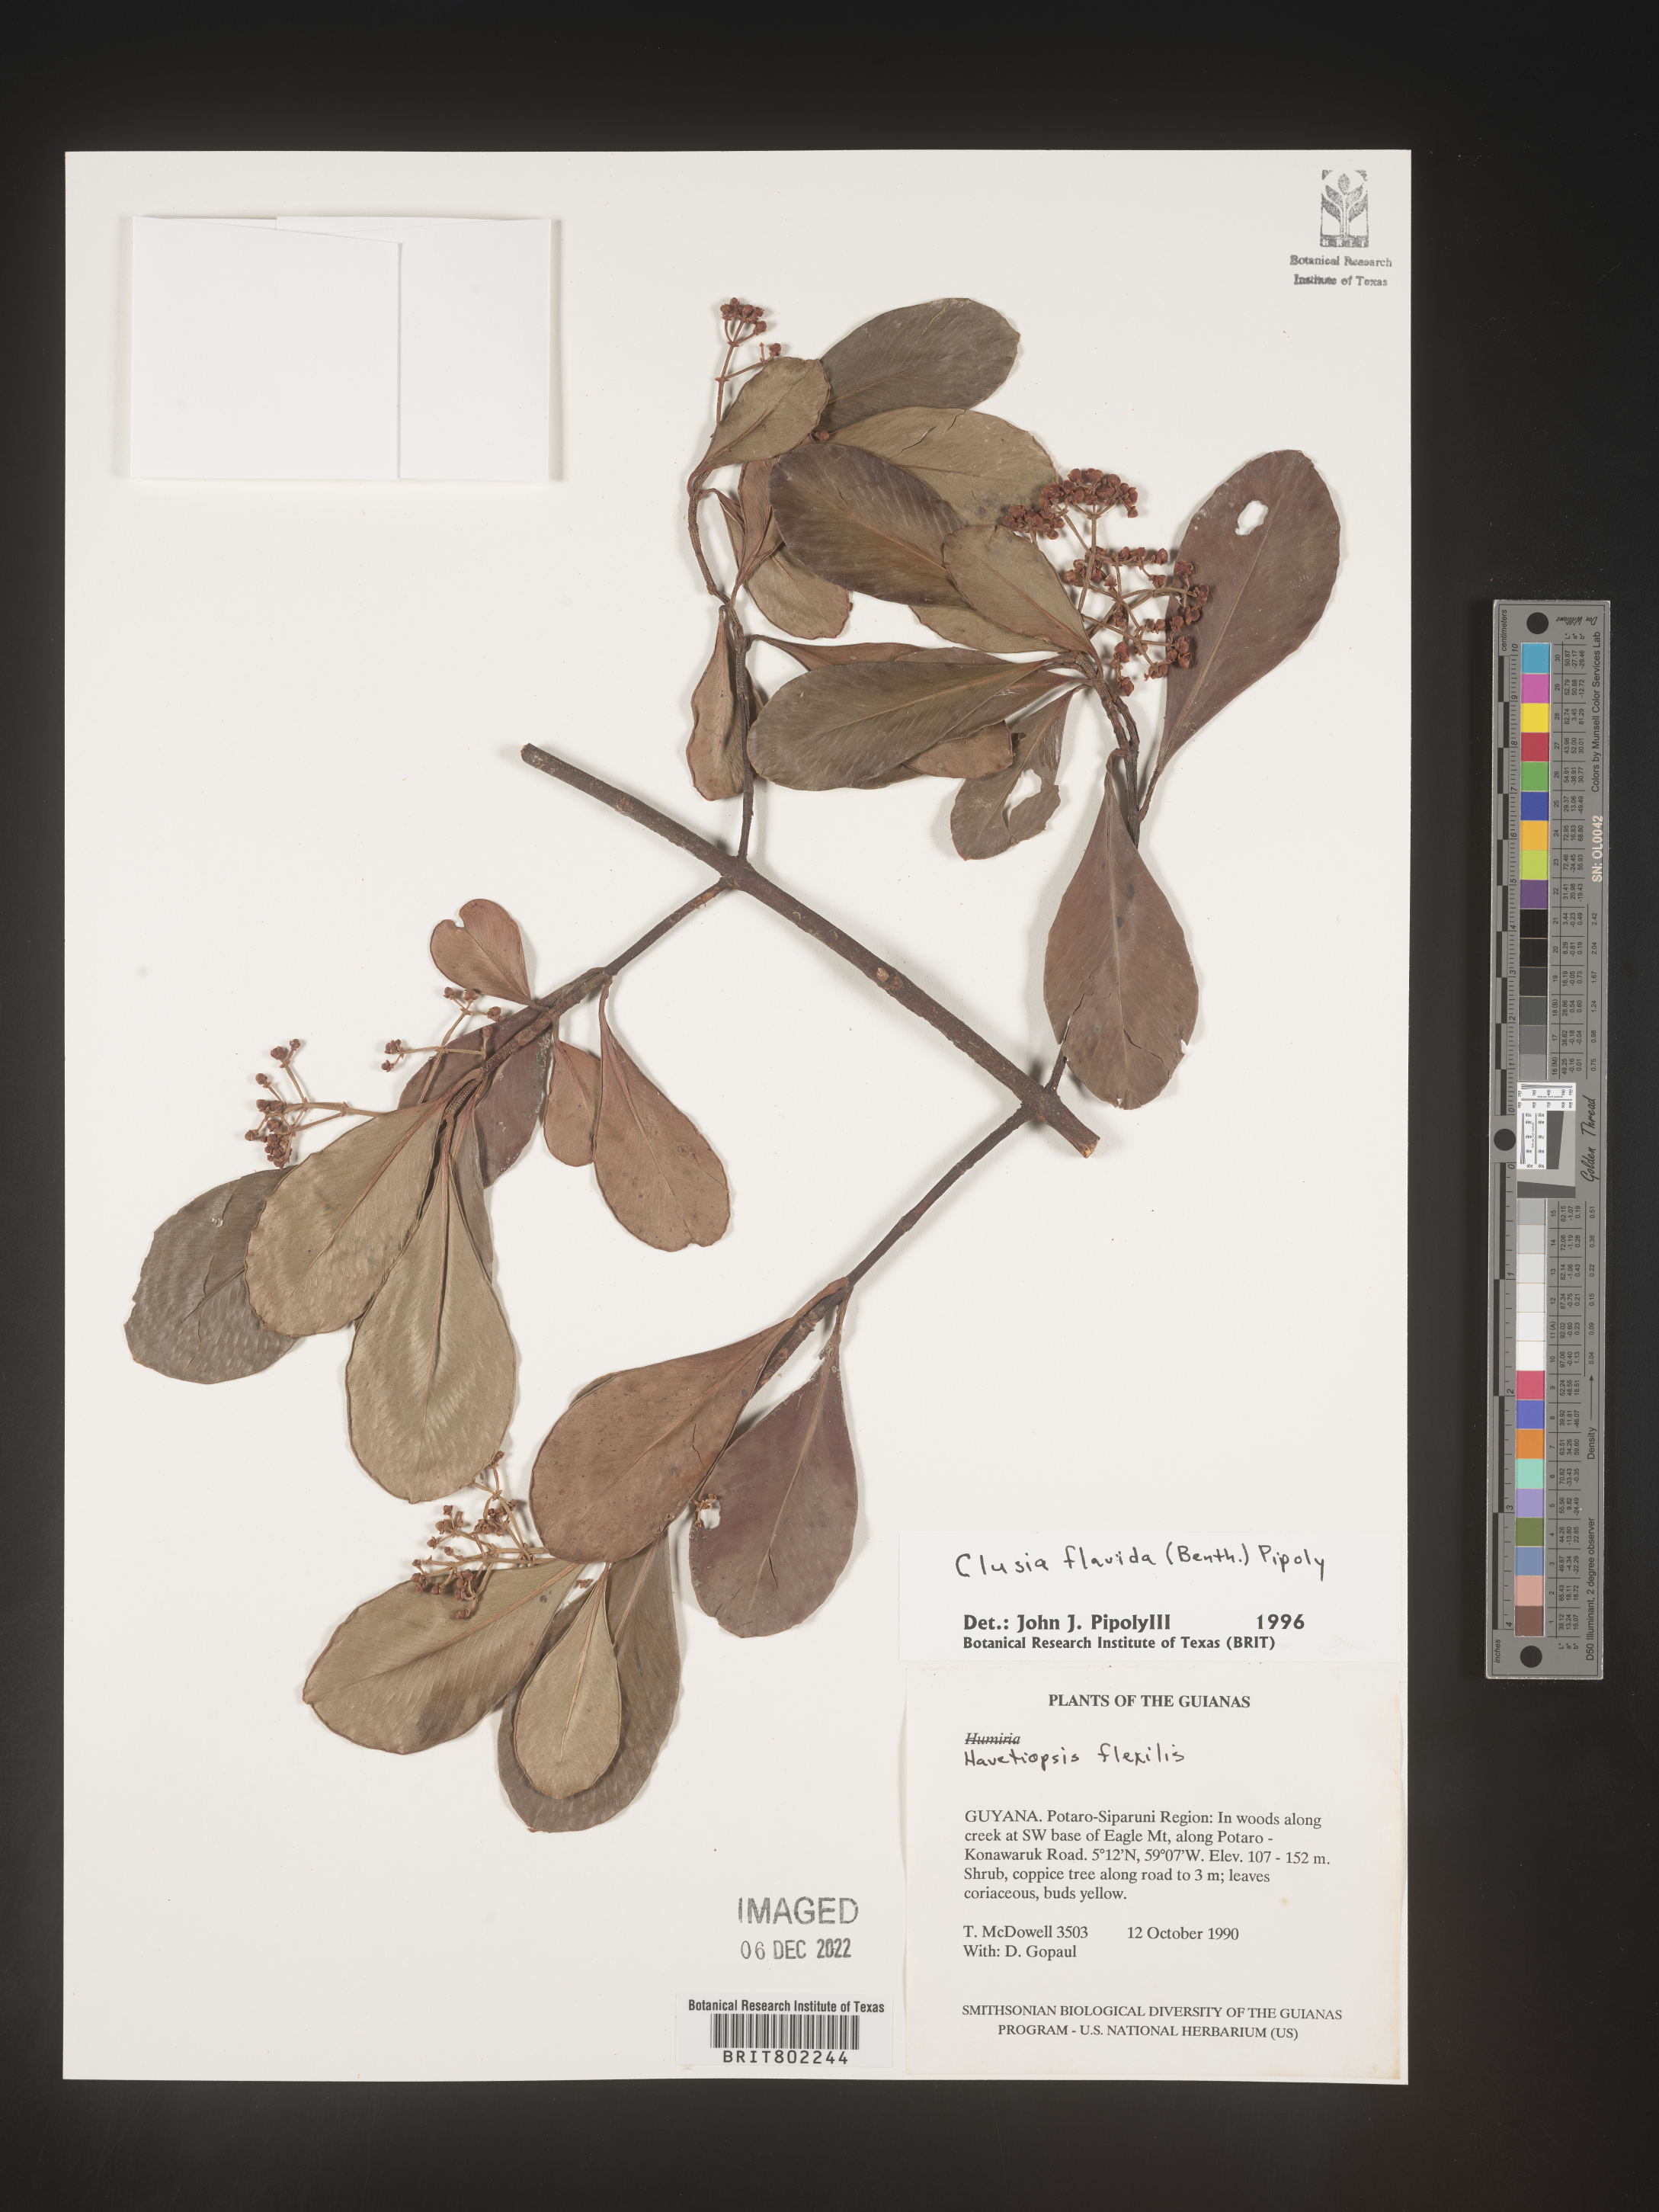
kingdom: Plantae
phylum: Tracheophyta
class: Magnoliopsida
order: Malpighiales
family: Clusiaceae
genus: Clusia
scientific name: Clusia flavida
